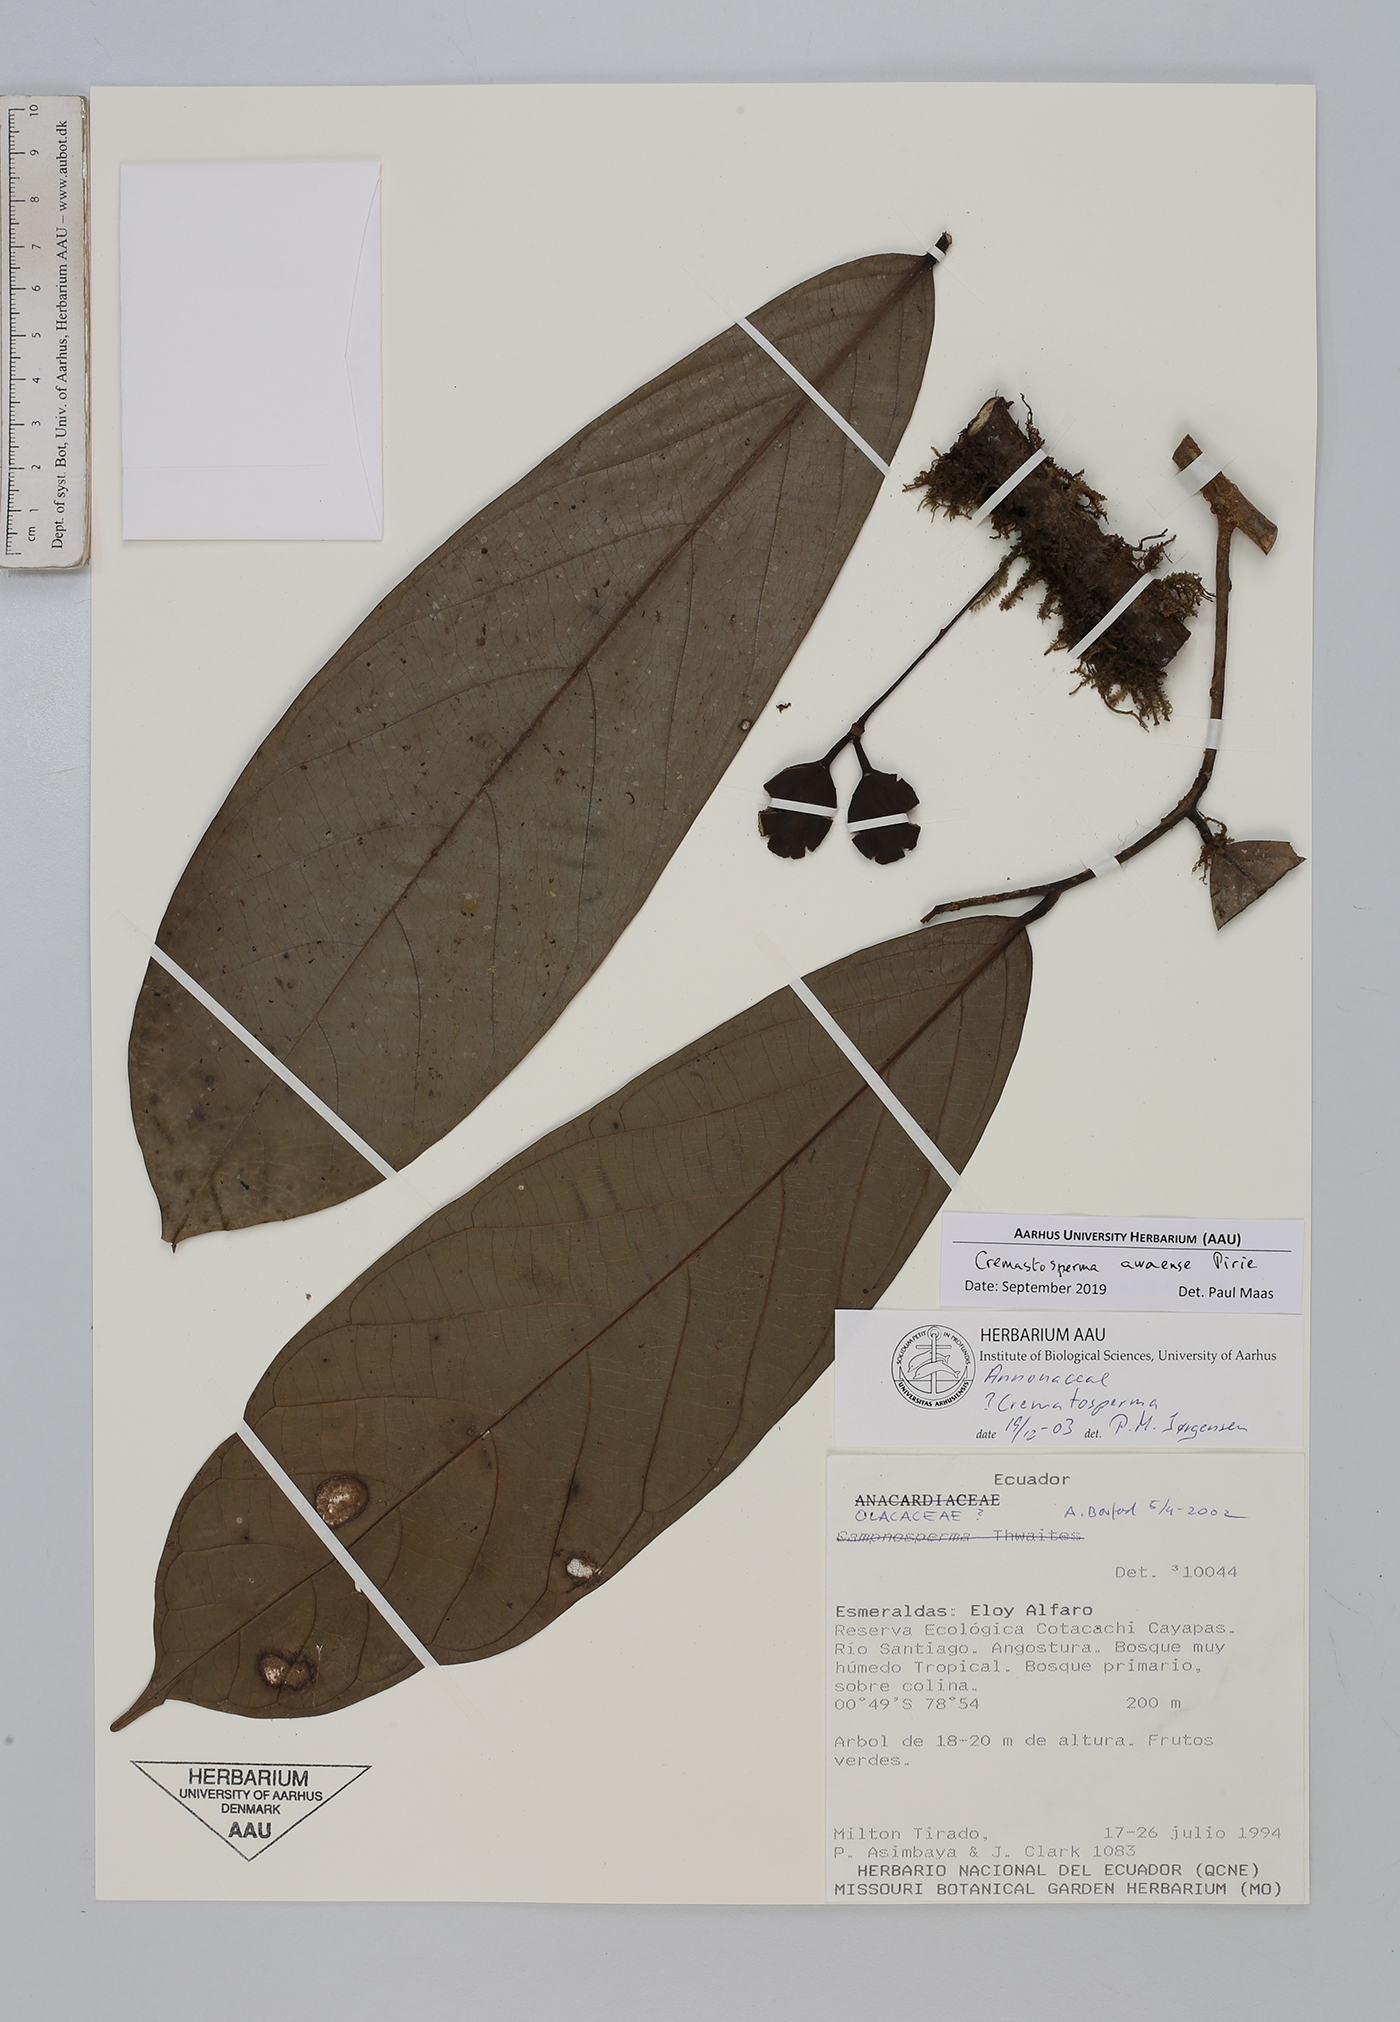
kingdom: Plantae
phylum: Tracheophyta
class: Magnoliopsida
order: Magnoliales
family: Annonaceae
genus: Cremastosperma
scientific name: Cremastosperma awaense
